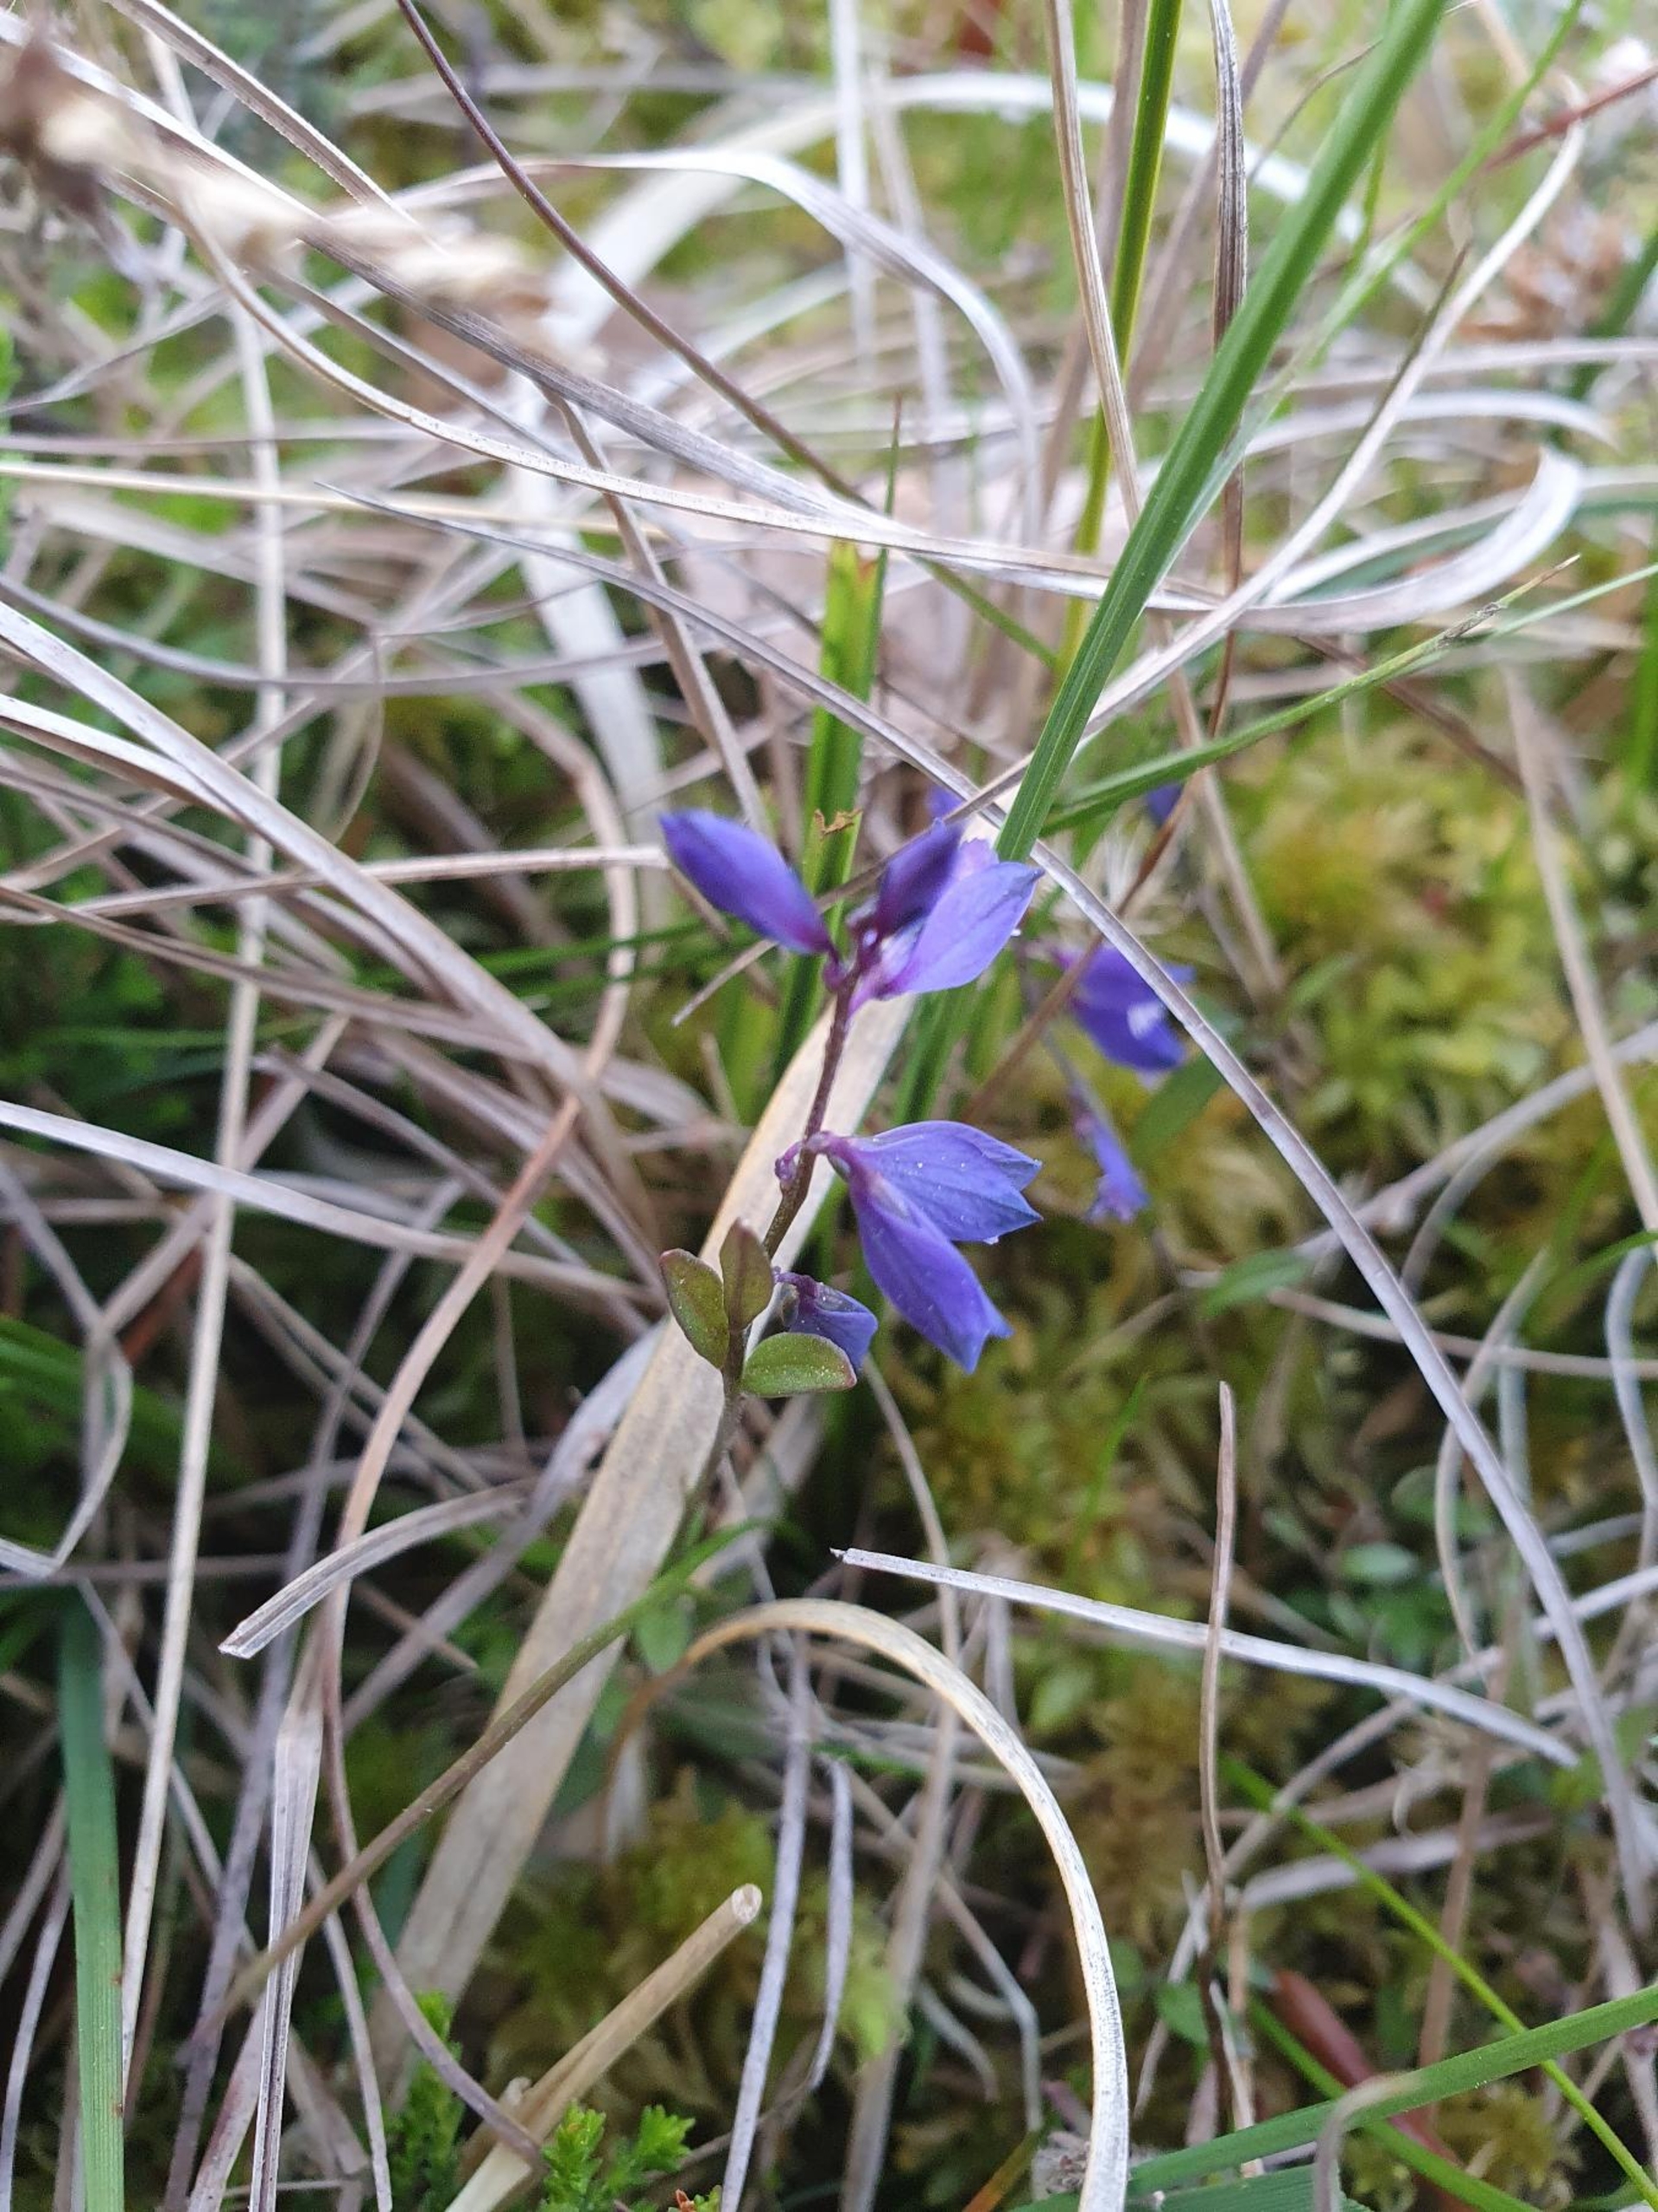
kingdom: Plantae
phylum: Tracheophyta
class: Magnoliopsida
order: Fabales
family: Polygalaceae
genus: Polygala
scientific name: Polygala serpyllifolia
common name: Spæd mælkeurt
